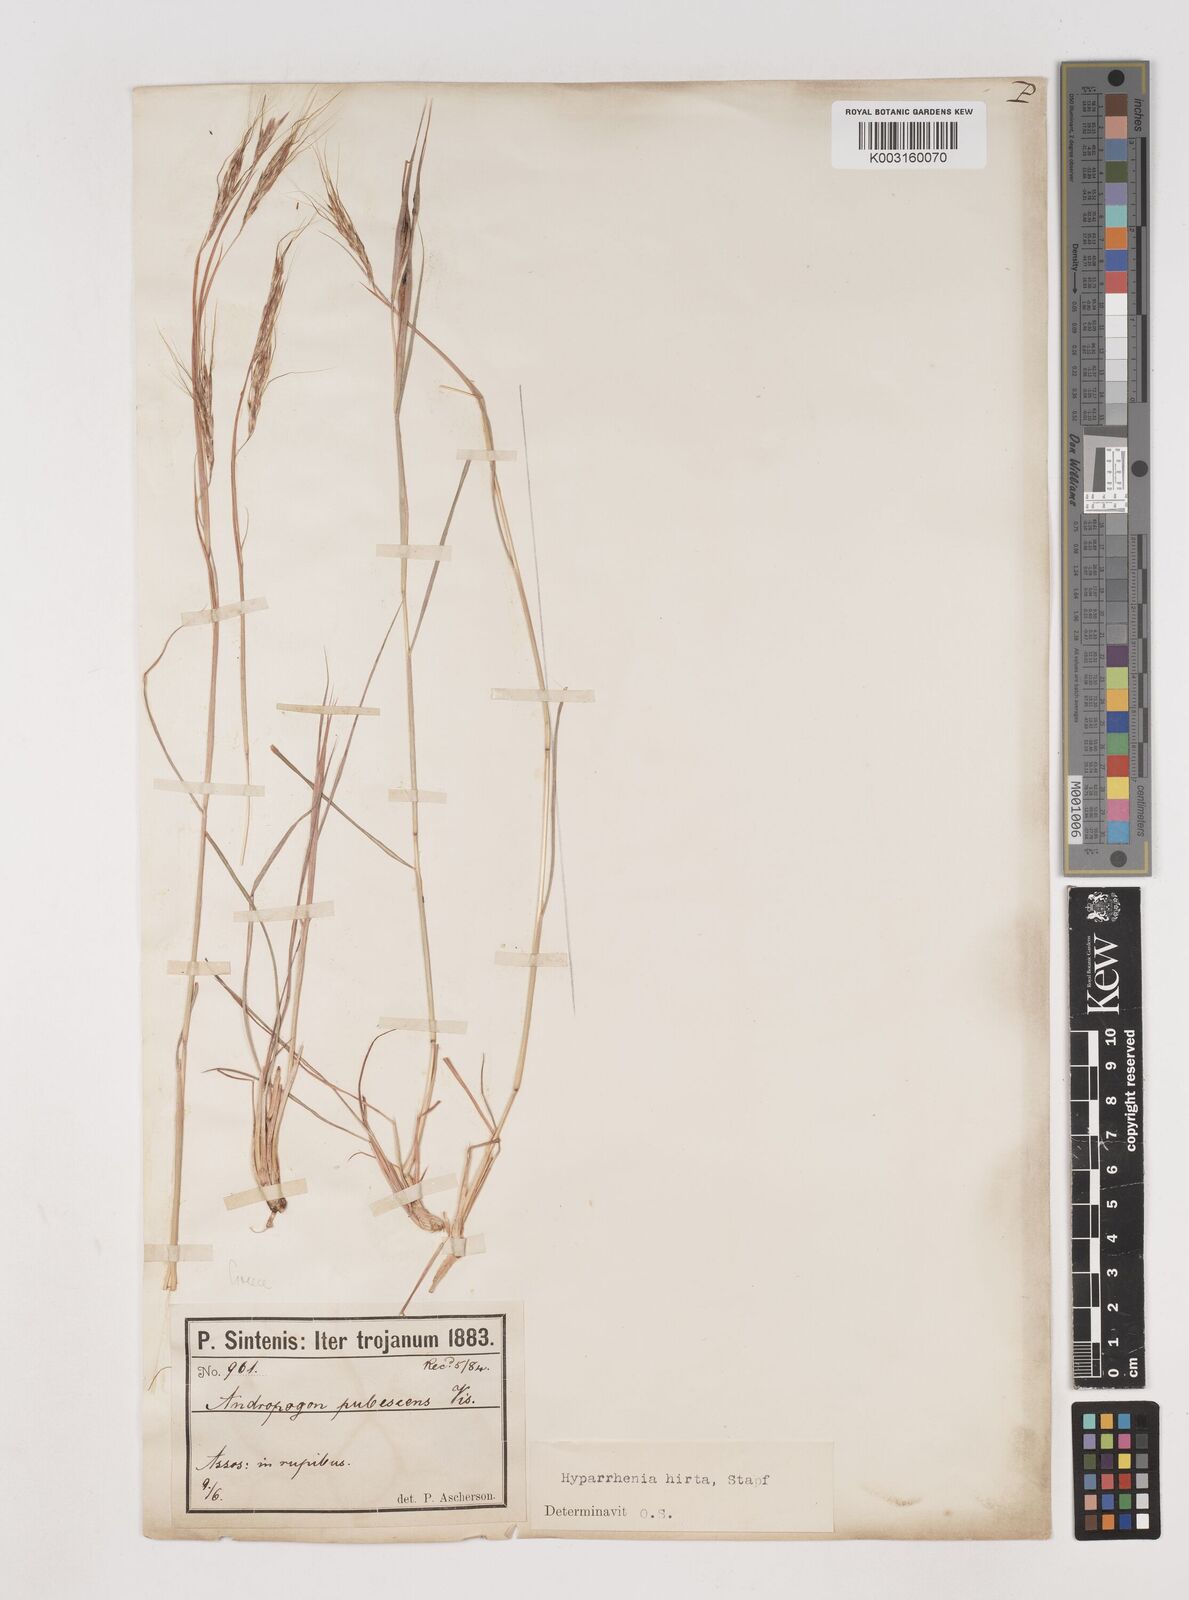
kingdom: Plantae
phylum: Tracheophyta
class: Liliopsida
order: Poales
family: Poaceae
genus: Hyparrhenia
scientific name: Hyparrhenia hirta
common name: Thatching grass
